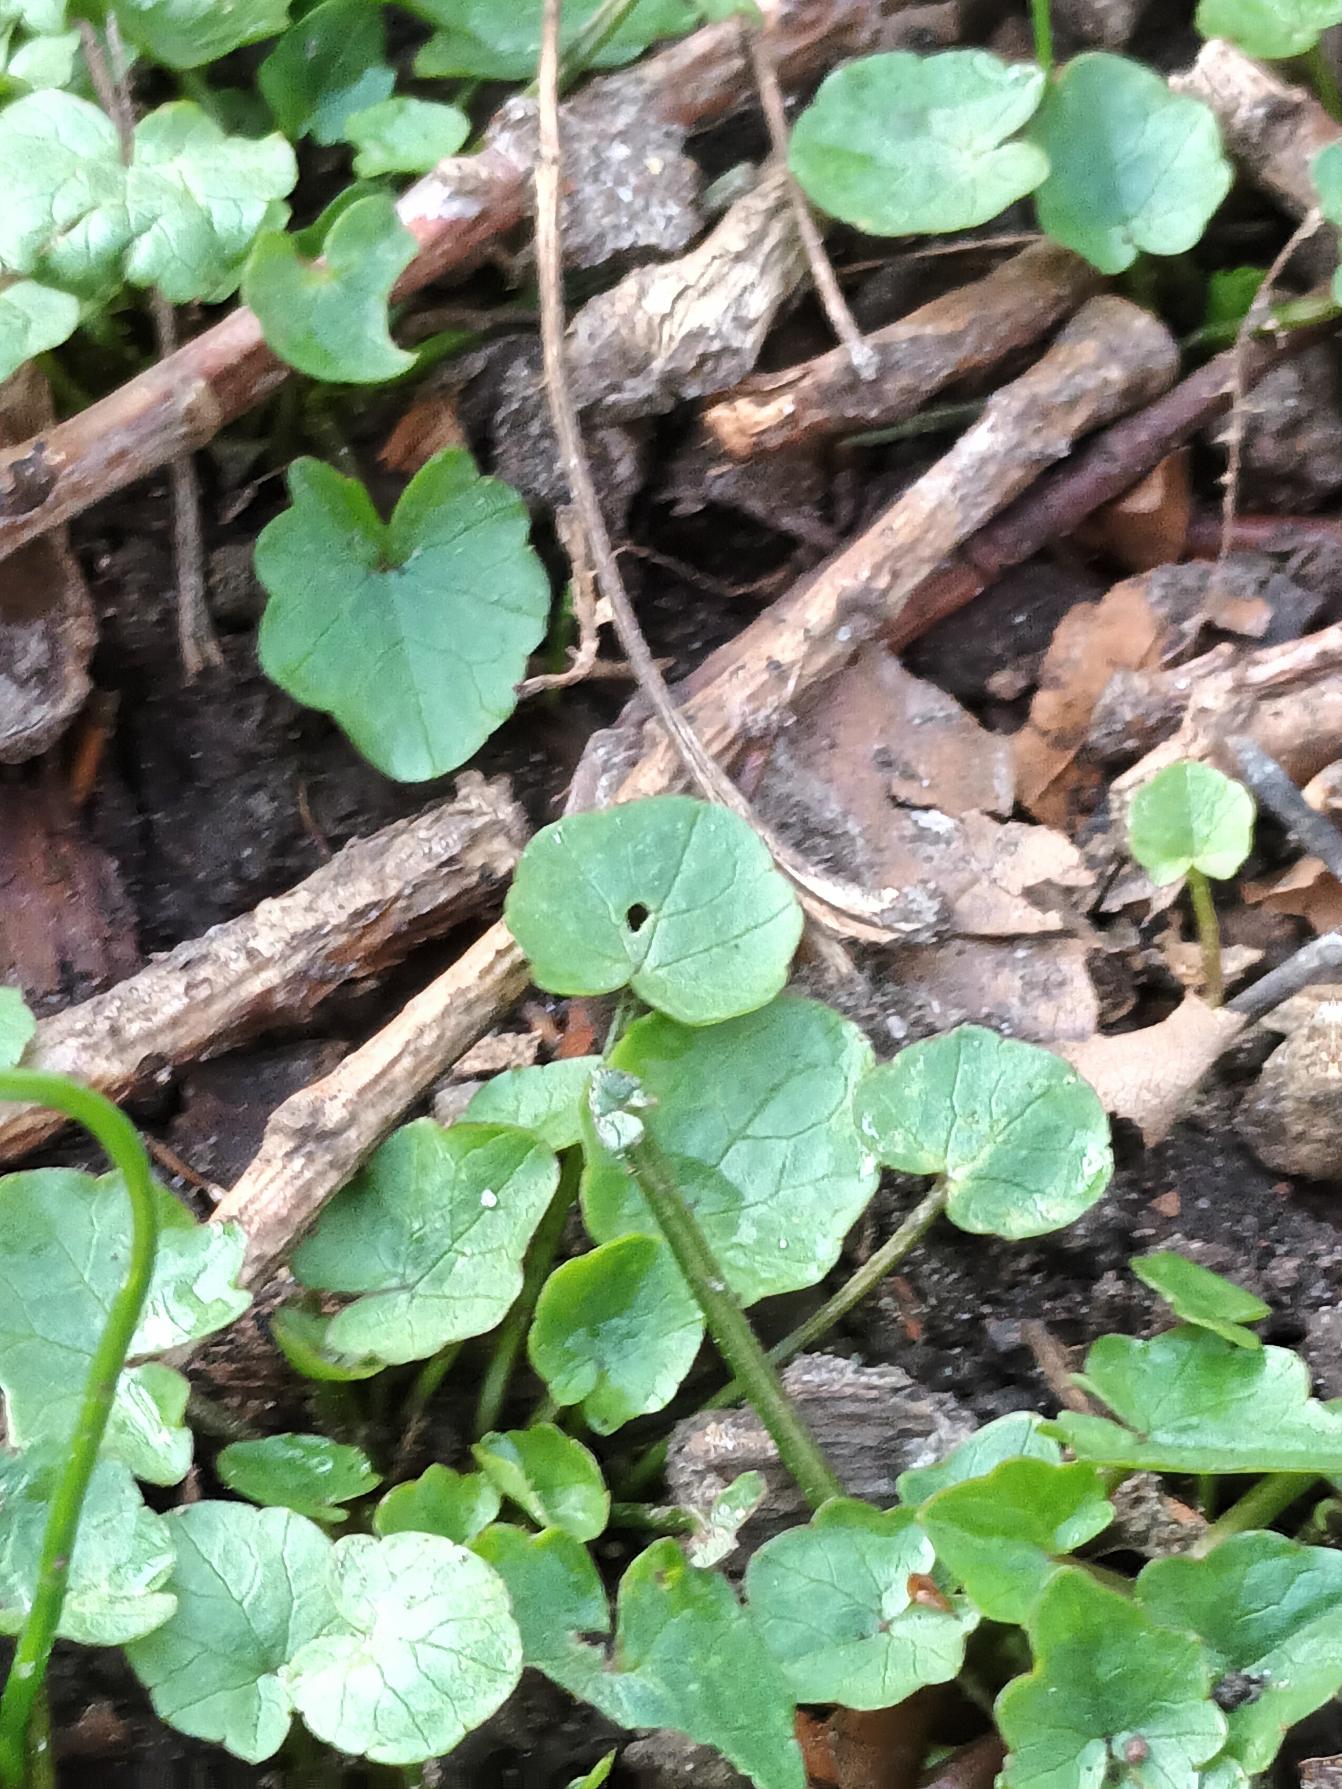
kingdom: Plantae
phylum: Tracheophyta
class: Magnoliopsida
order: Ranunculales
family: Ranunculaceae
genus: Ficaria
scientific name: Ficaria verna
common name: Vorterod
